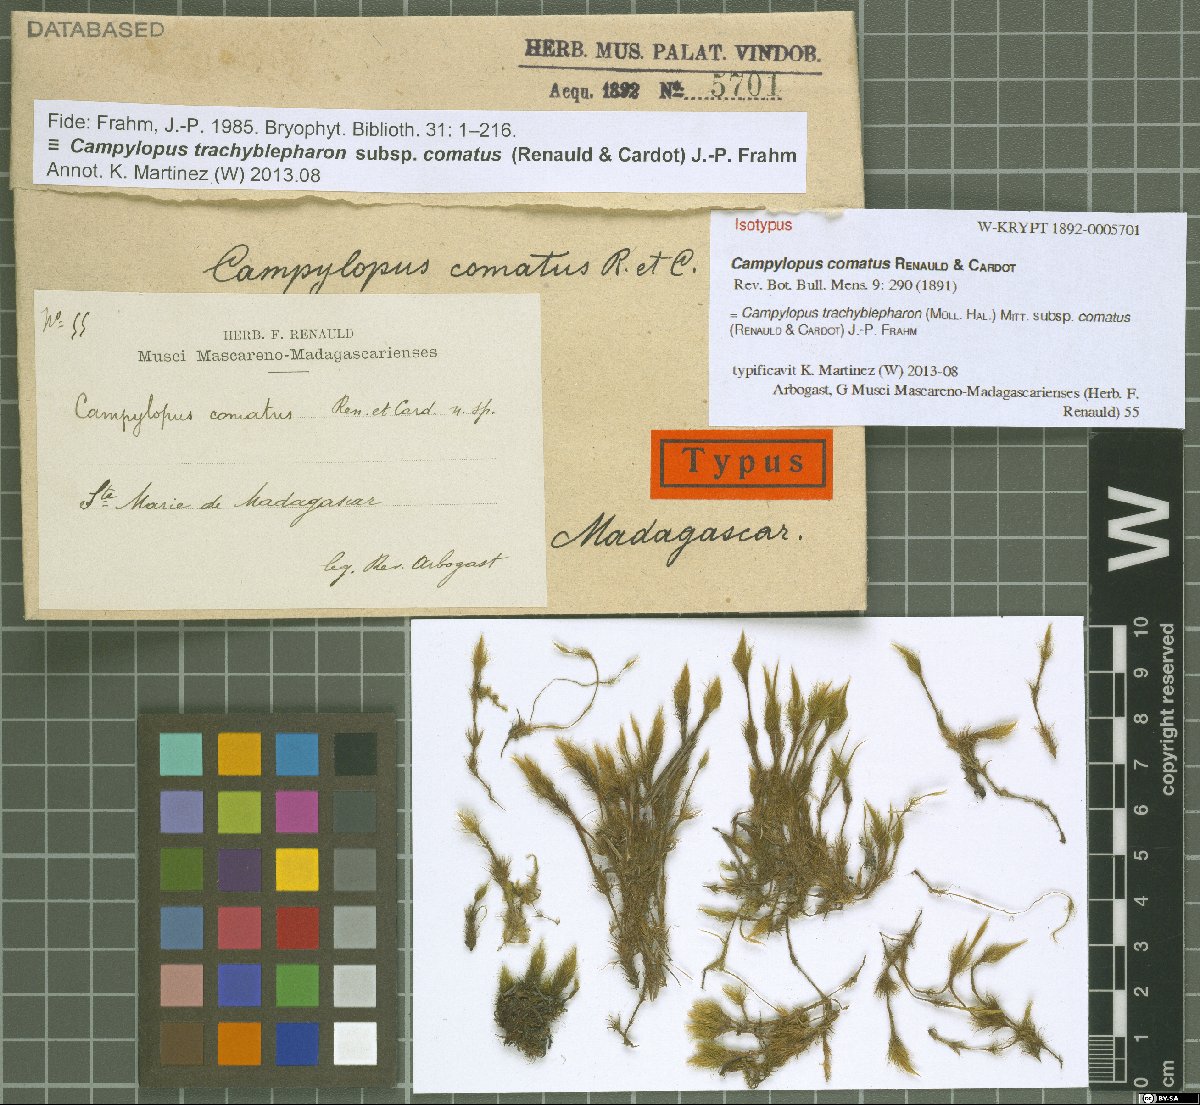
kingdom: Plantae
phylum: Bryophyta
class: Bryopsida
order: Dicranales
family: Leucobryaceae
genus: Campylopus
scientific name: Campylopus trachyblepharon
